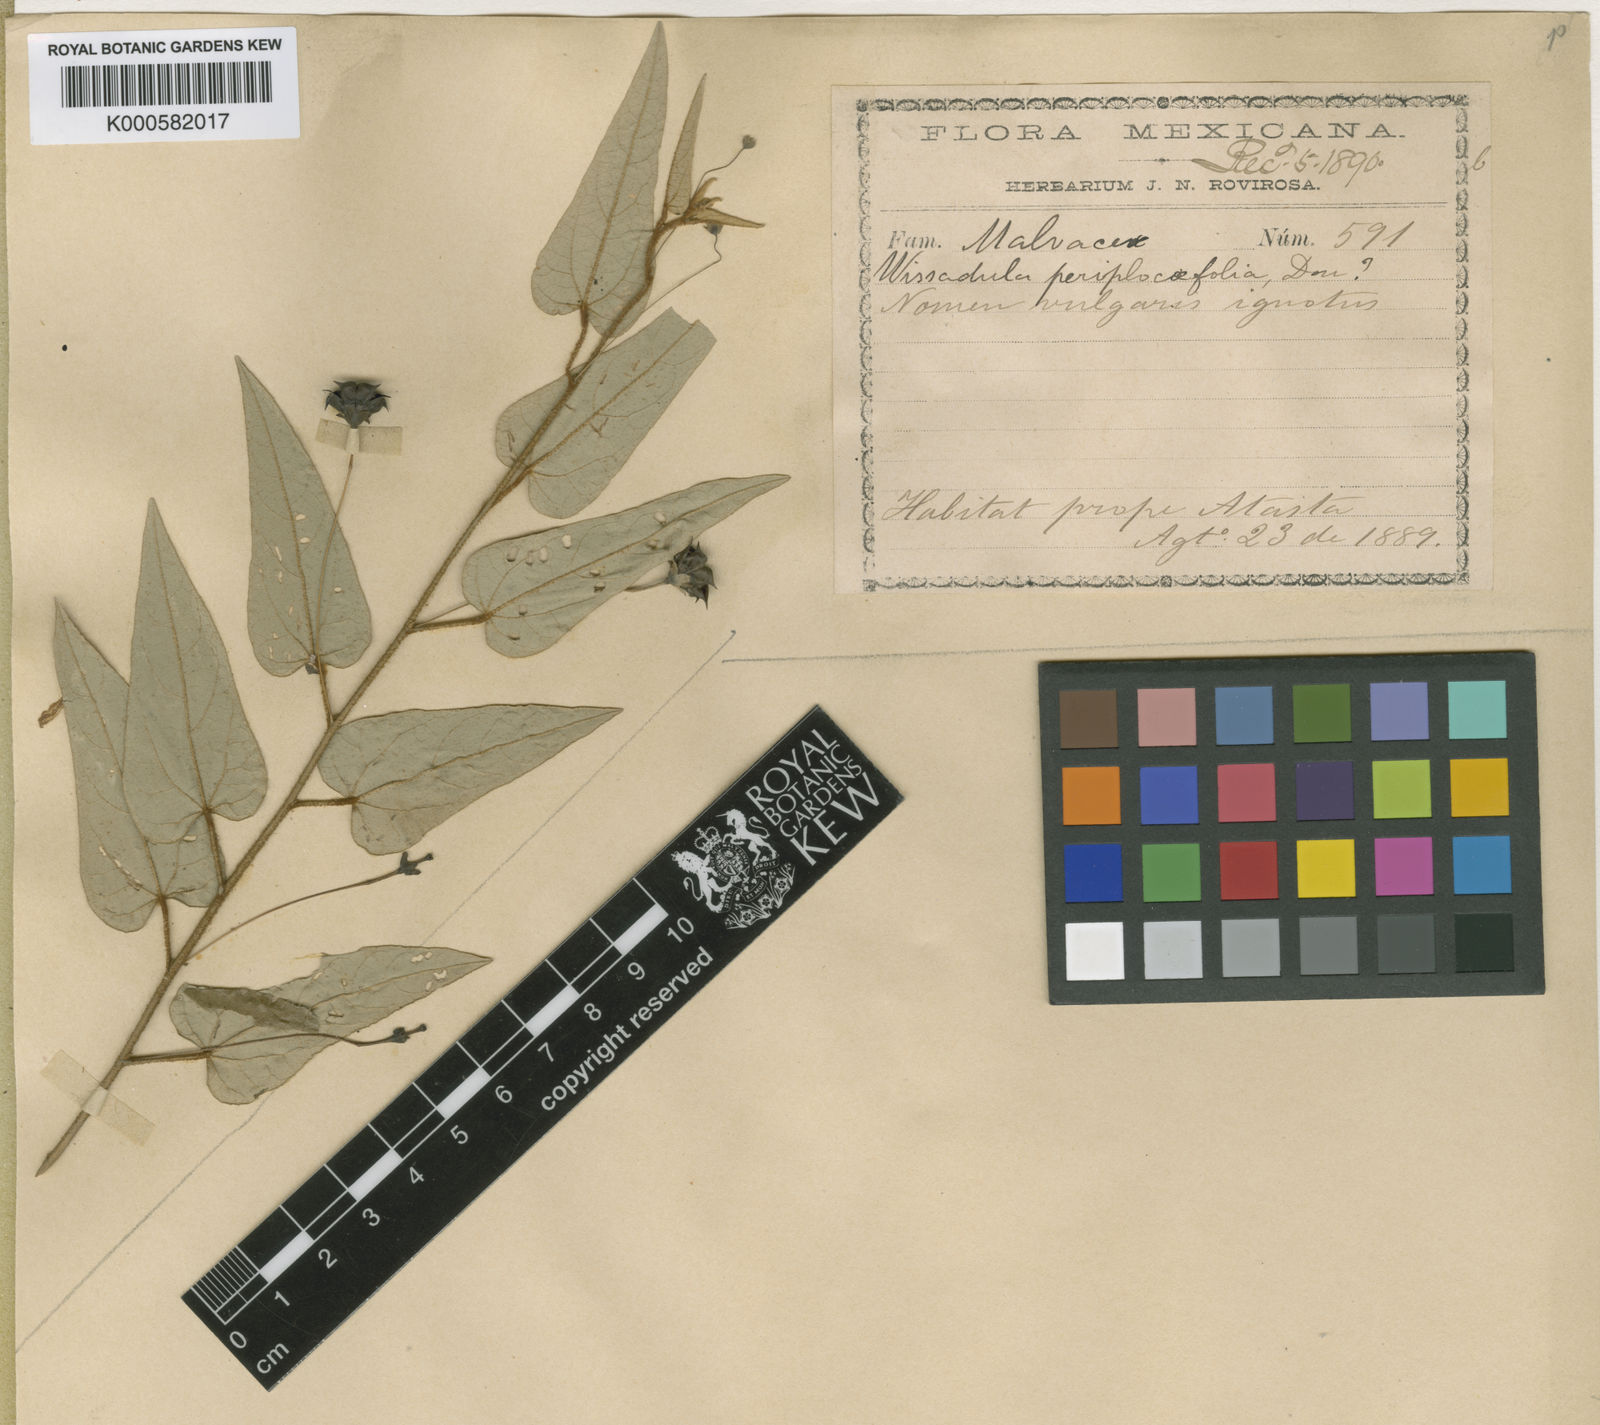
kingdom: Plantae
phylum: Tracheophyta
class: Magnoliopsida
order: Malvales
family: Malvaceae
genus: Wissadula
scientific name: Wissadula periplocifolia
